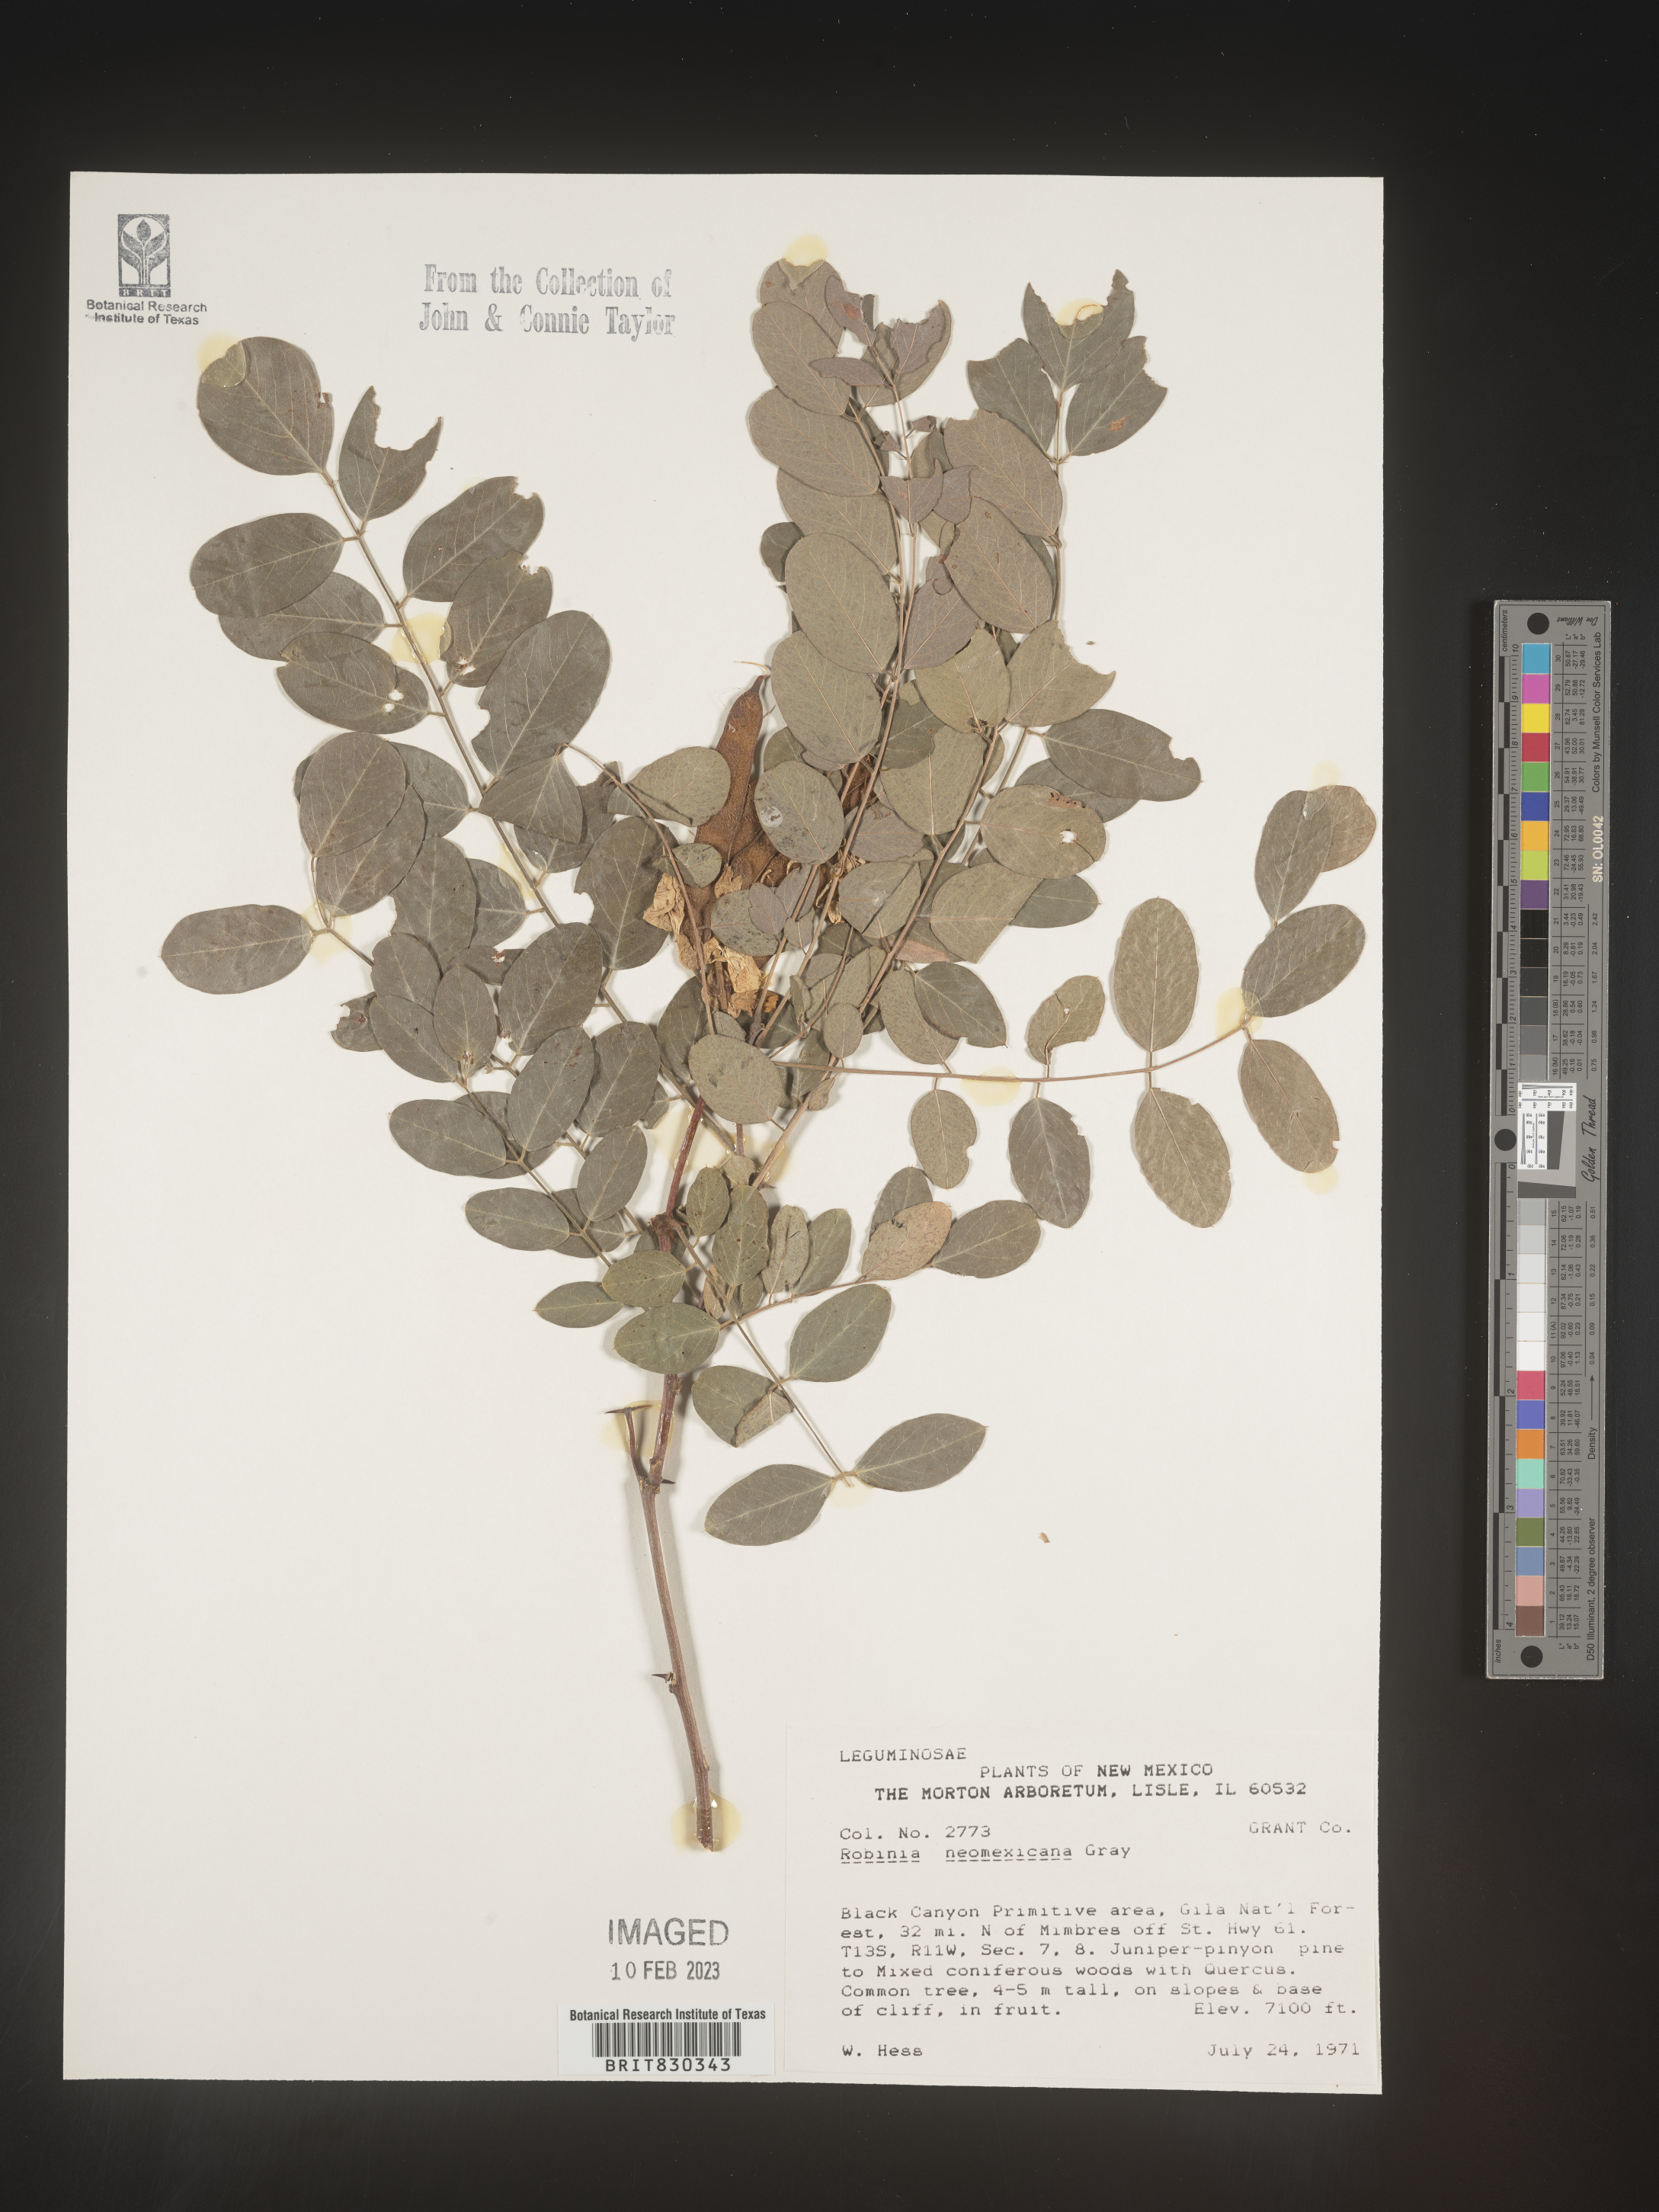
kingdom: Plantae
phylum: Tracheophyta
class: Magnoliopsida
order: Fabales
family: Fabaceae
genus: Robinia
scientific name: Robinia neomexicana
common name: New mexico locust
